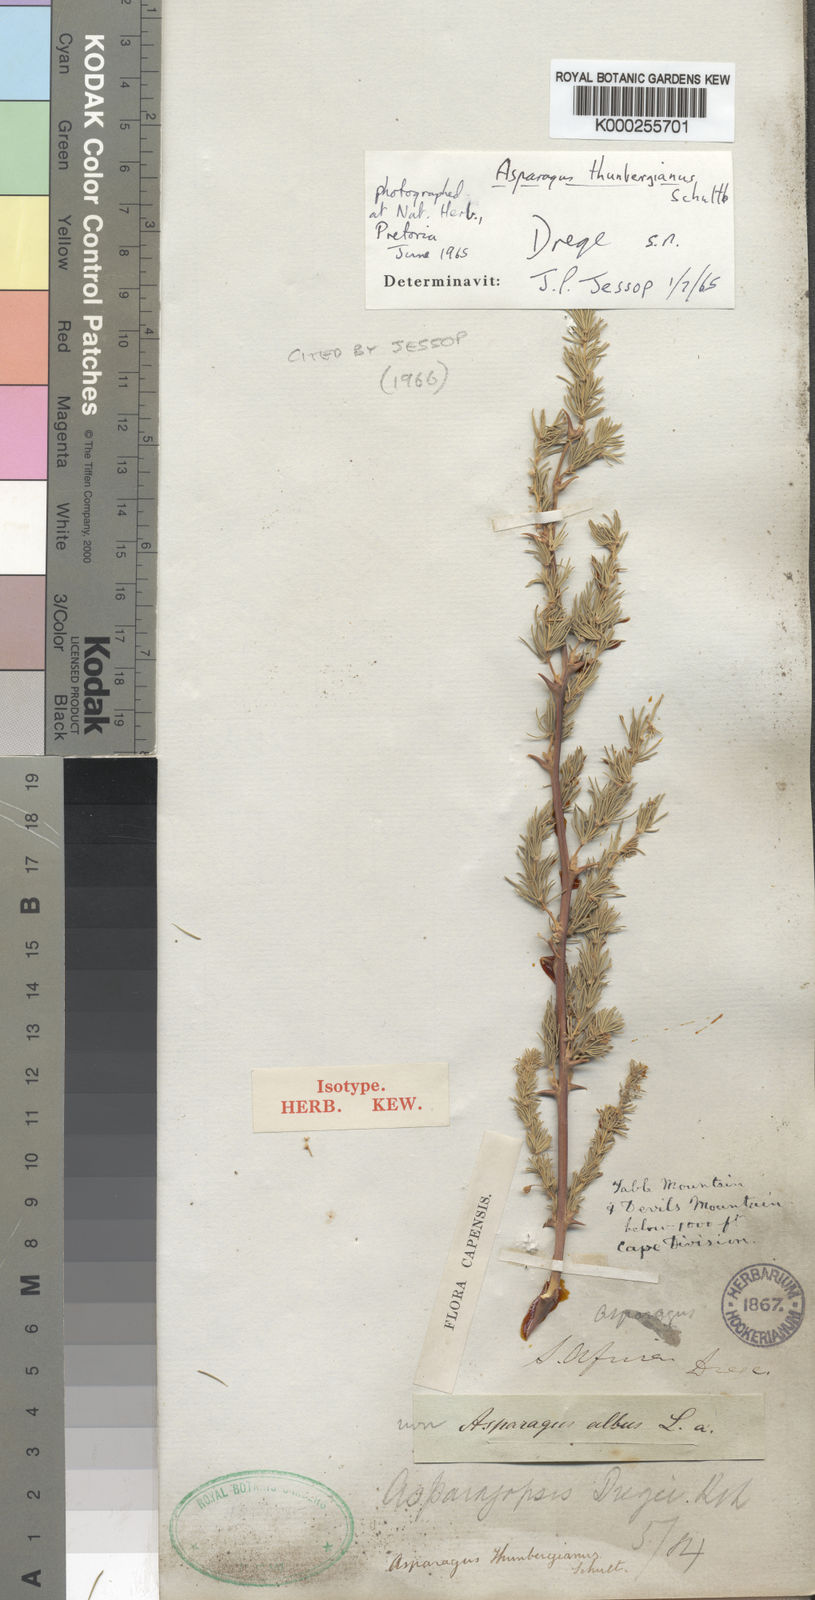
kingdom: Plantae
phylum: Tracheophyta
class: Liliopsida
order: Asparagales
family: Asparagaceae
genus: Asparagus
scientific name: Asparagus rubicundus
